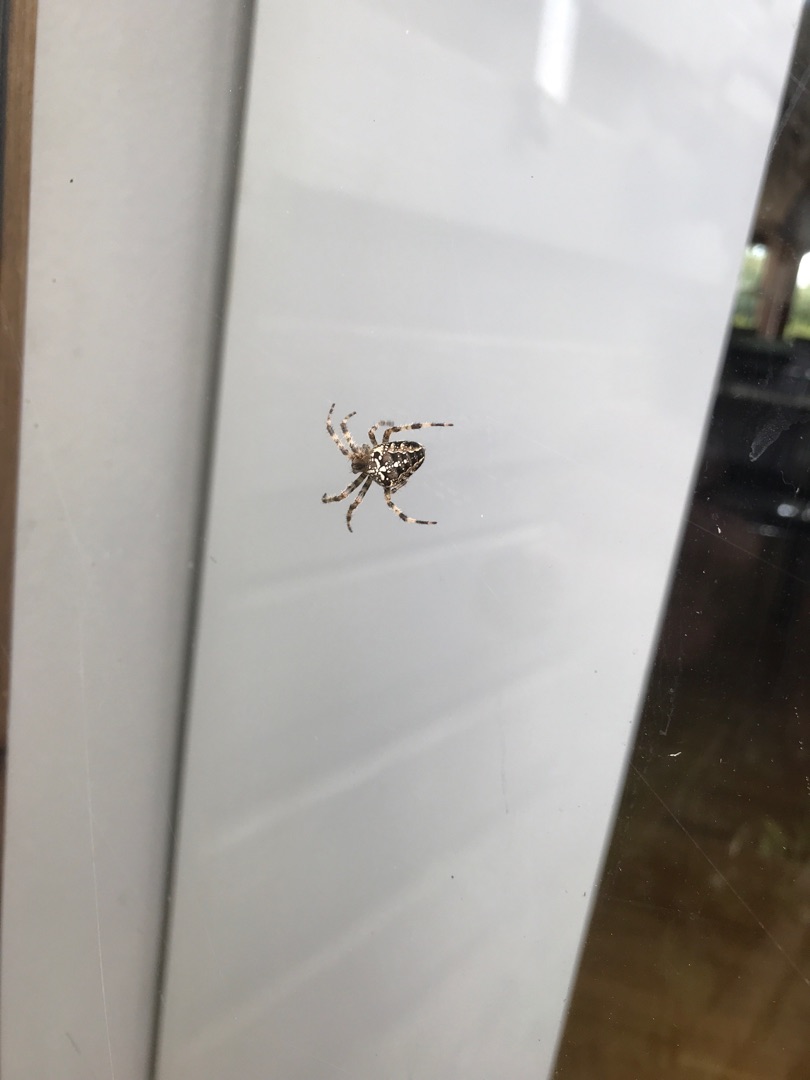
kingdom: Animalia
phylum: Arthropoda
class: Arachnida
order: Araneae
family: Araneidae
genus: Araneus
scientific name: Araneus diadematus
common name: Korsedderkop
